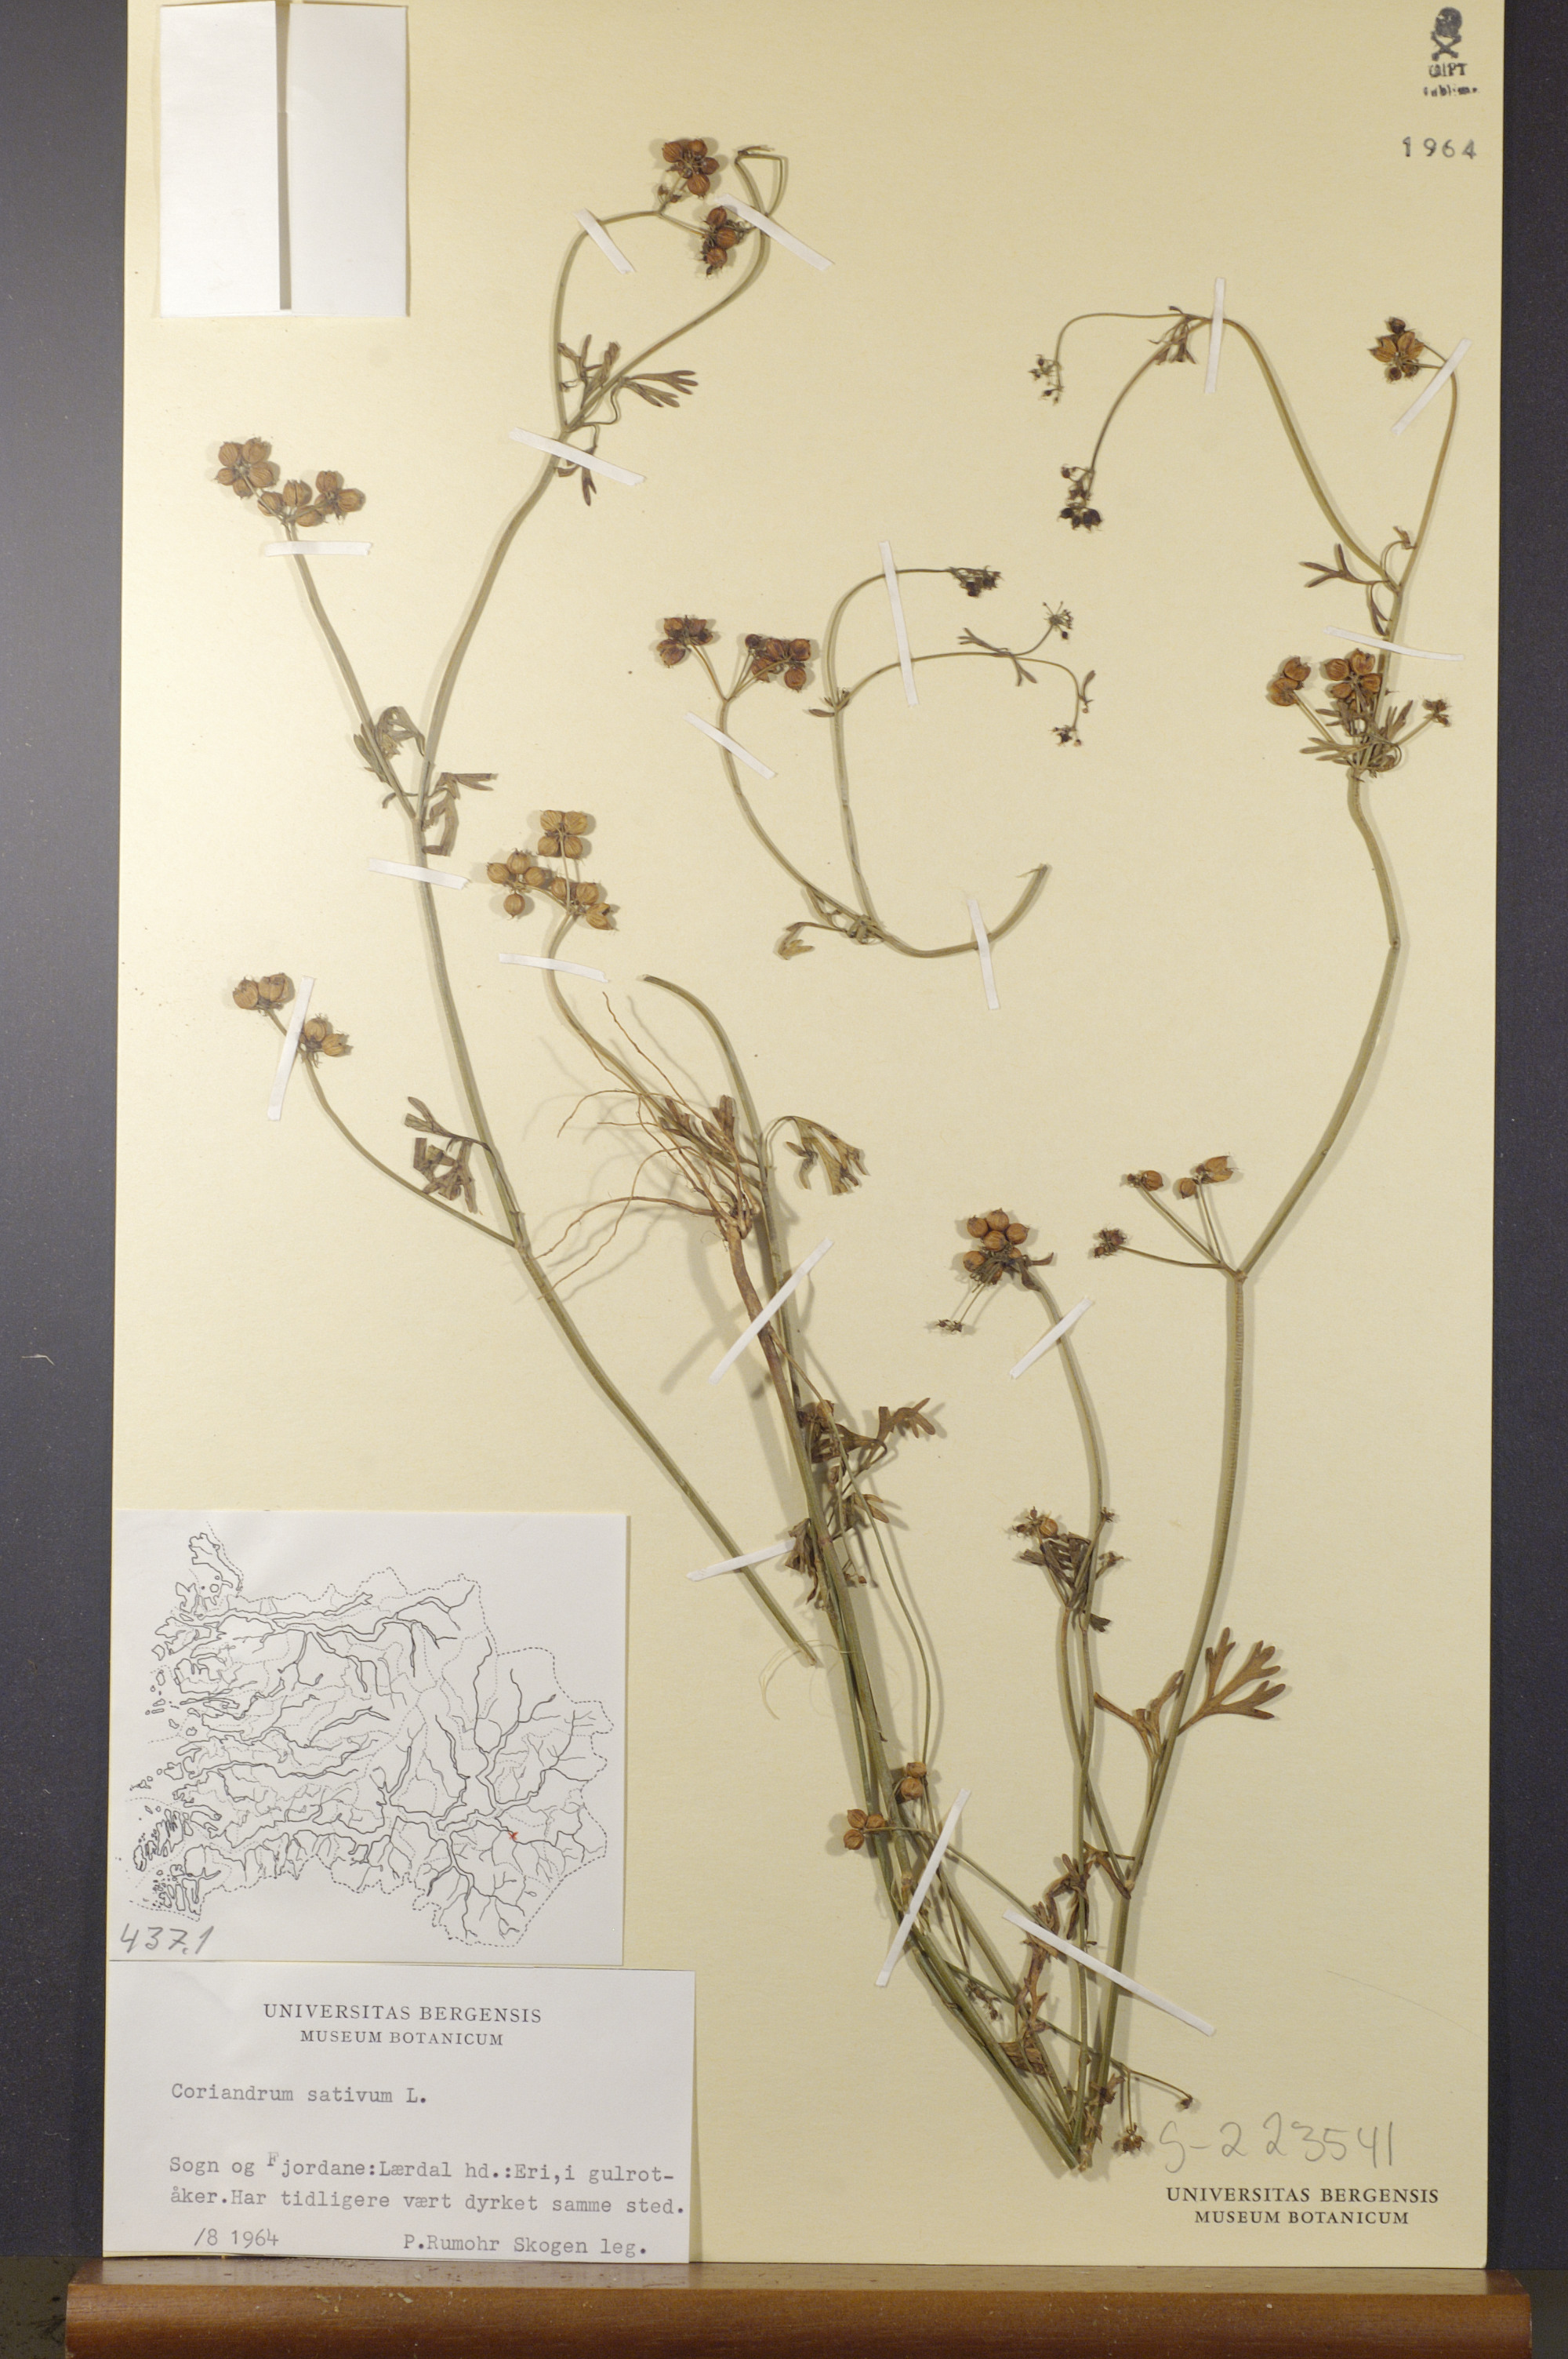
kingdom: Plantae
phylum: Tracheophyta
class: Magnoliopsida
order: Apiales
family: Apiaceae
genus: Coriandrum
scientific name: Coriandrum sativum
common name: Coriander
